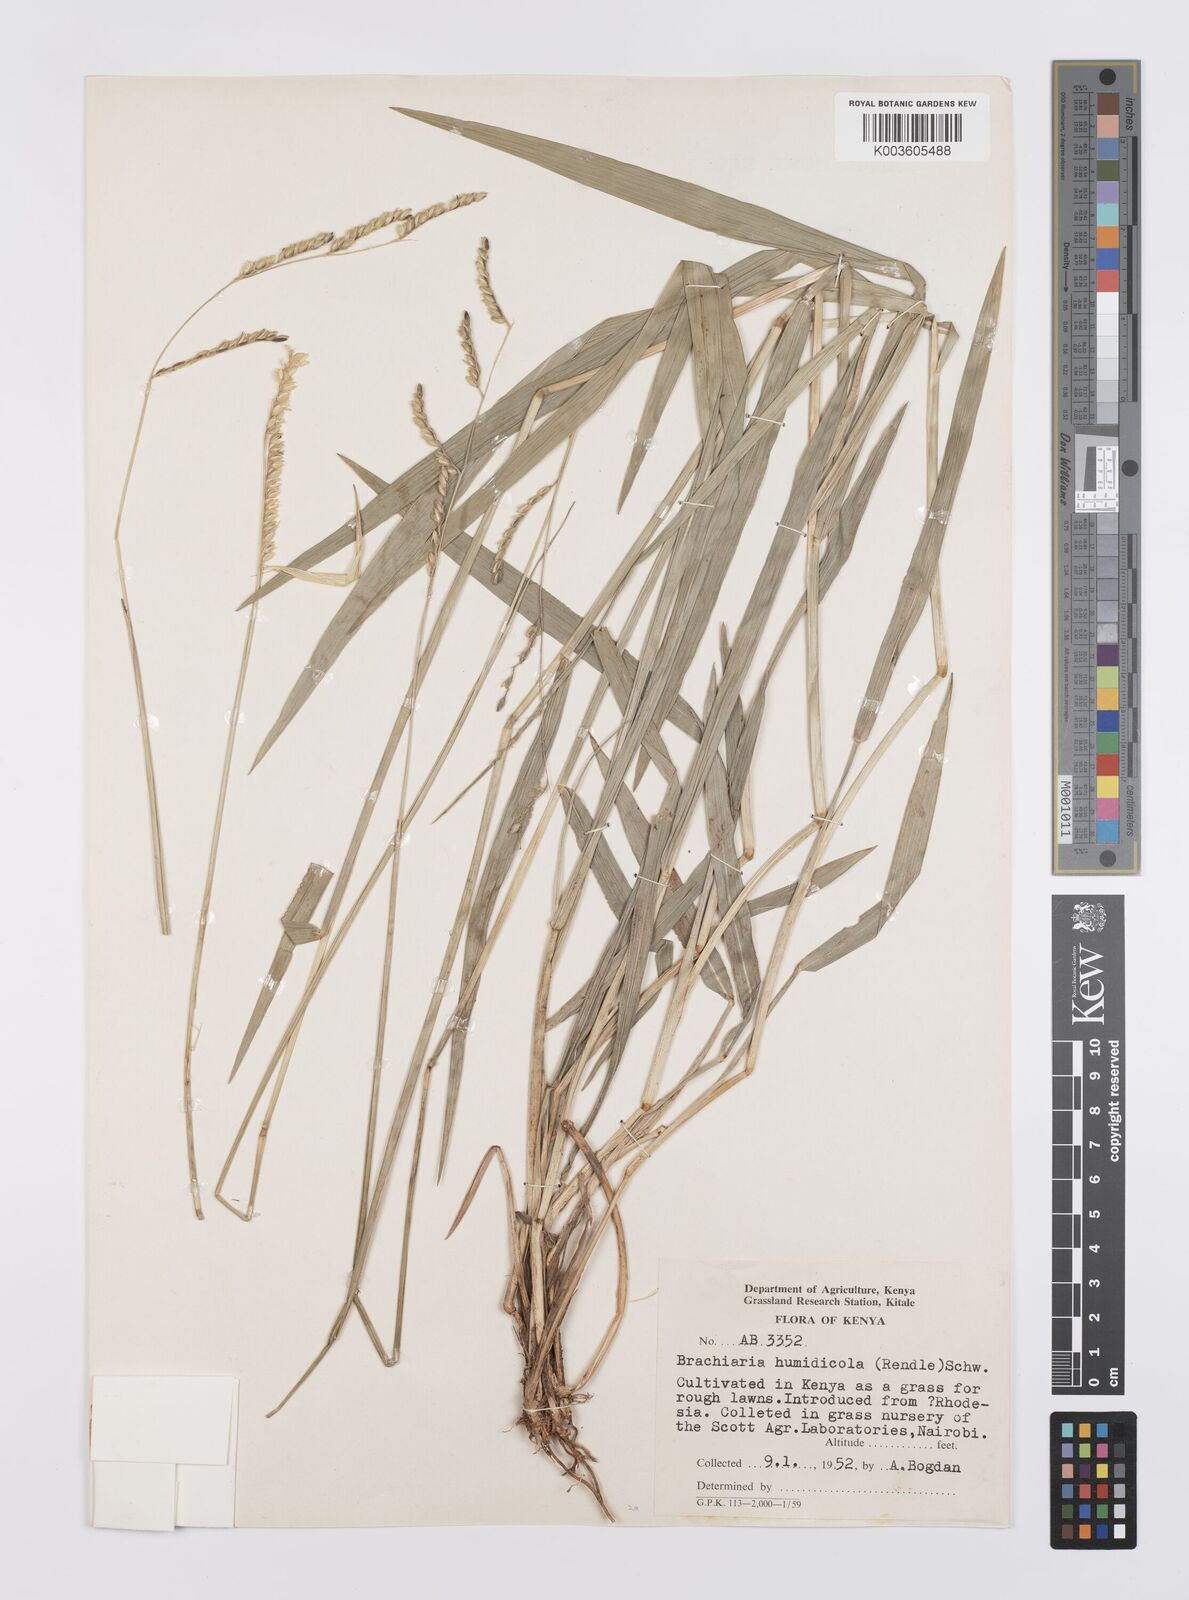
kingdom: Plantae
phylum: Tracheophyta
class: Liliopsida
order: Poales
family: Poaceae
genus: Urochloa
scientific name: Urochloa dictyoneura
